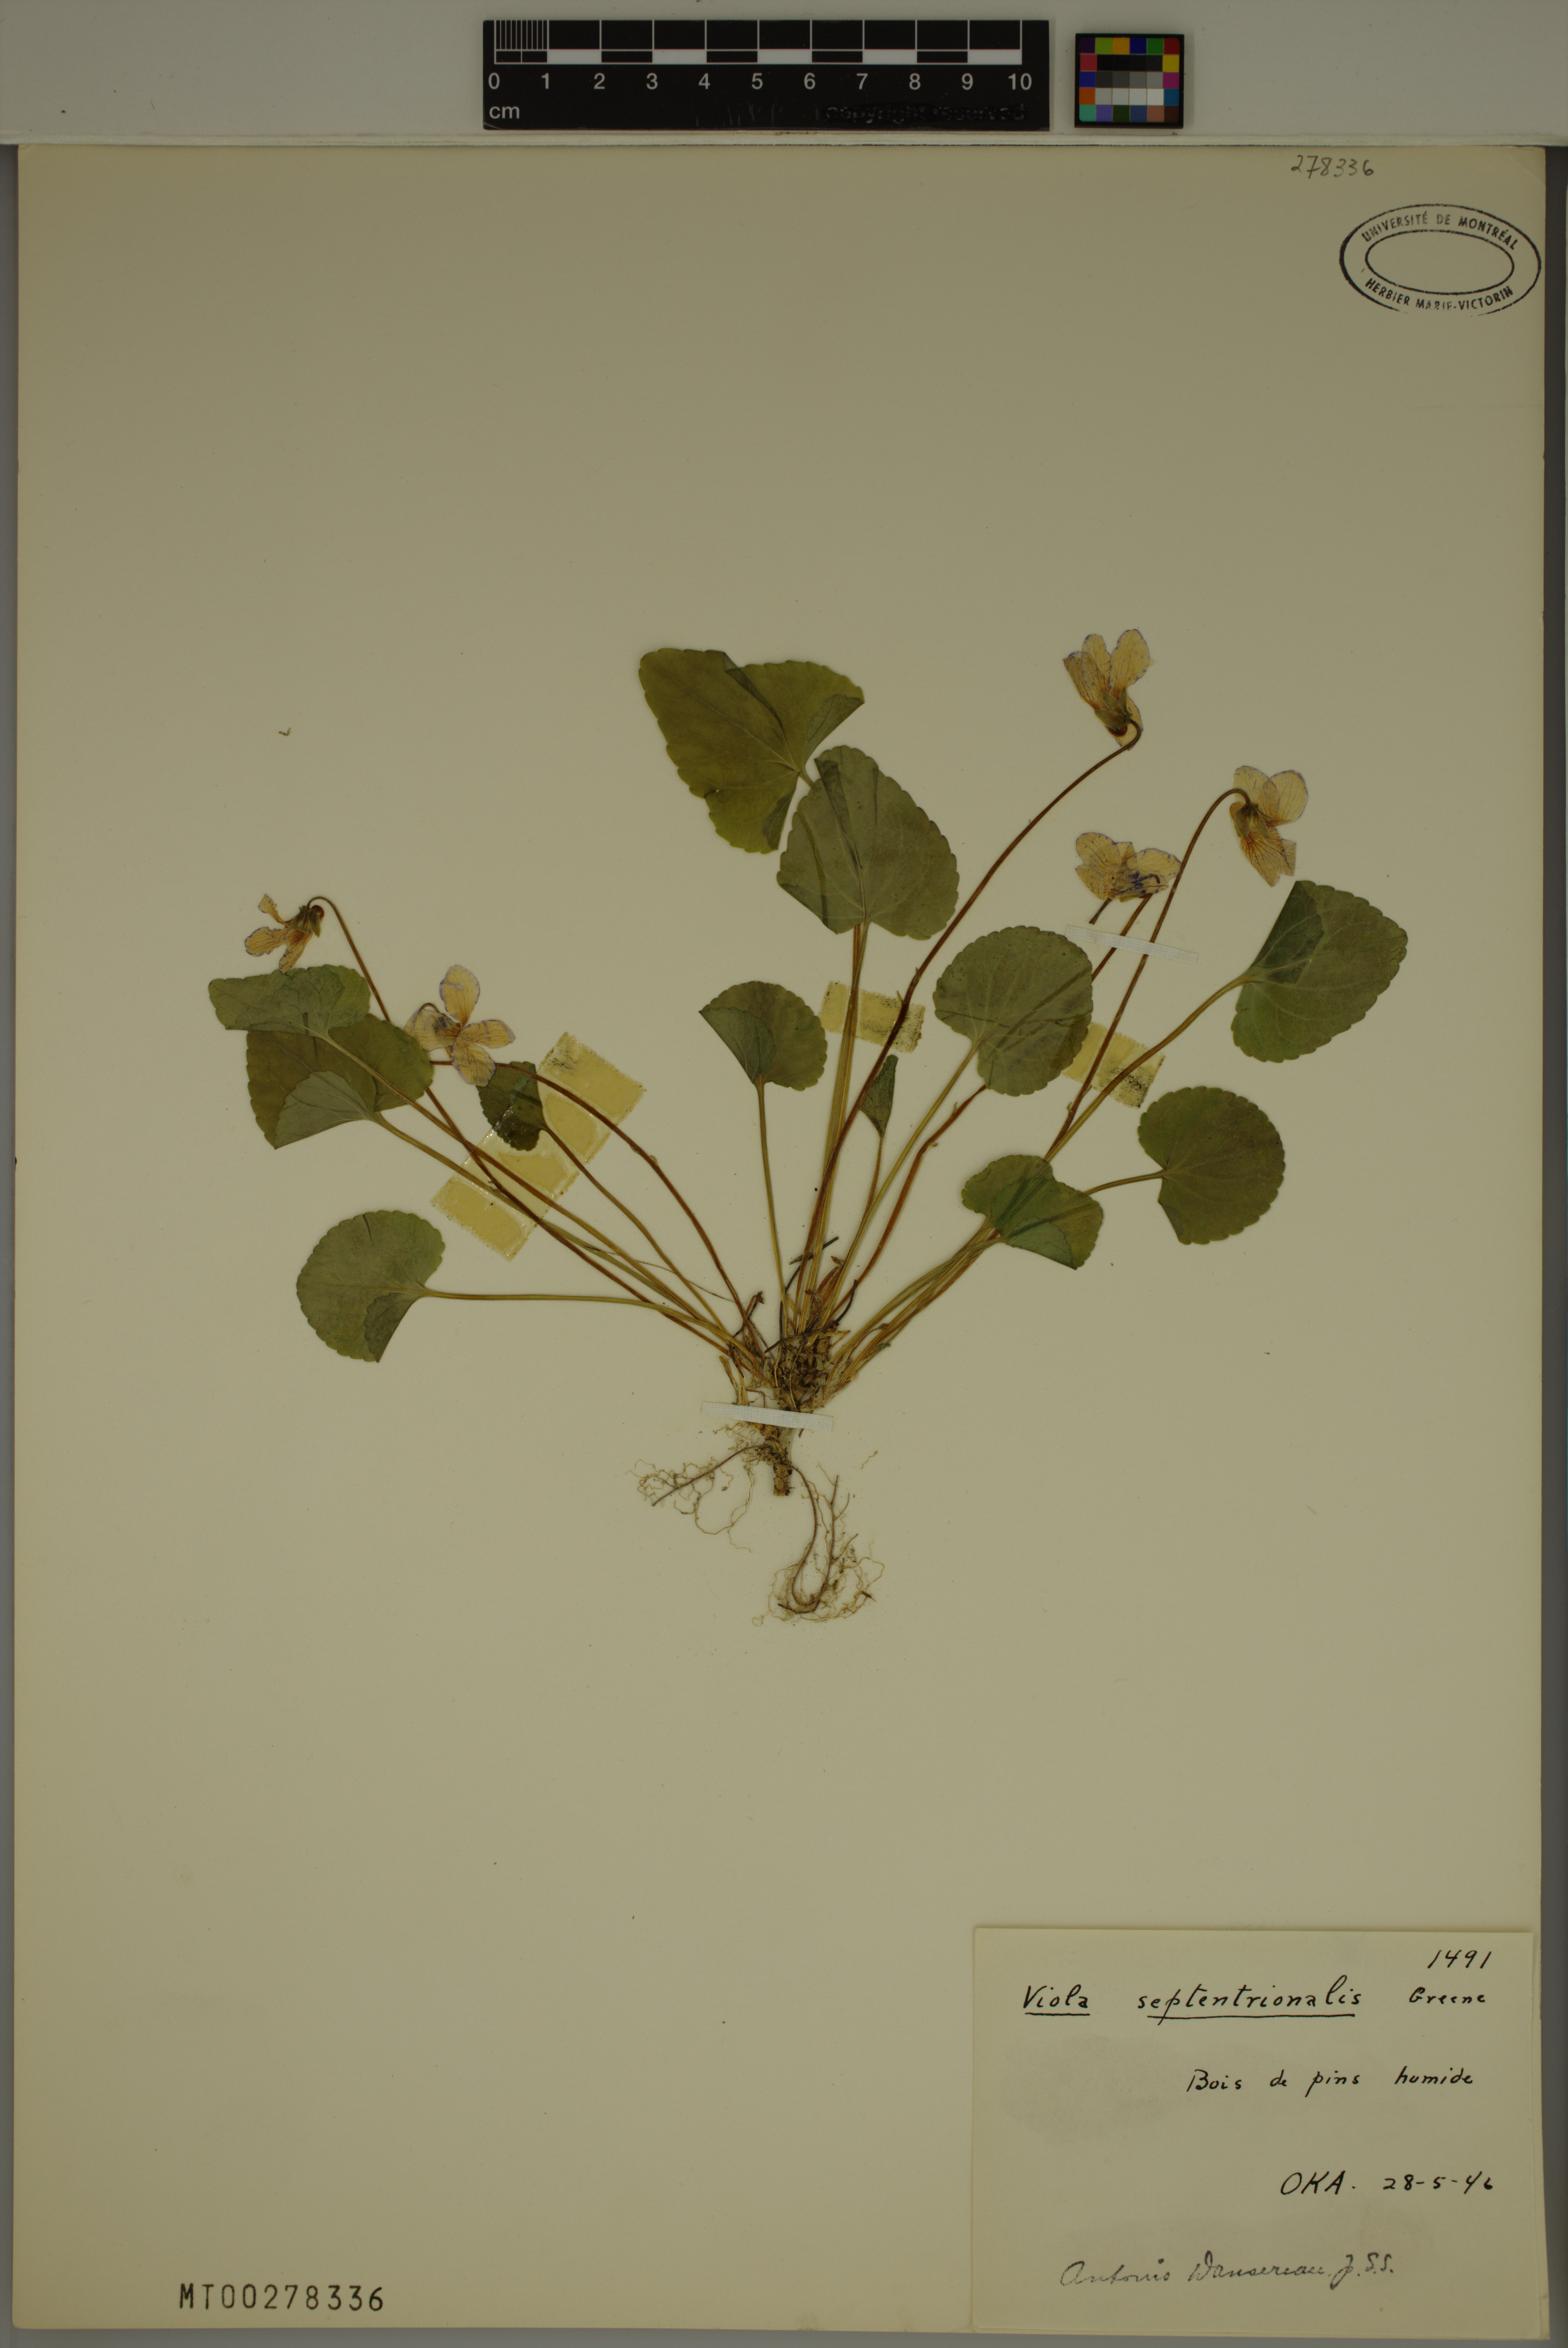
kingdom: Plantae
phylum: Tracheophyta
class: Magnoliopsida
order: Malpighiales
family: Violaceae
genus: Viola
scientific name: Viola septentrionalis
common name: Northern woodland violet
